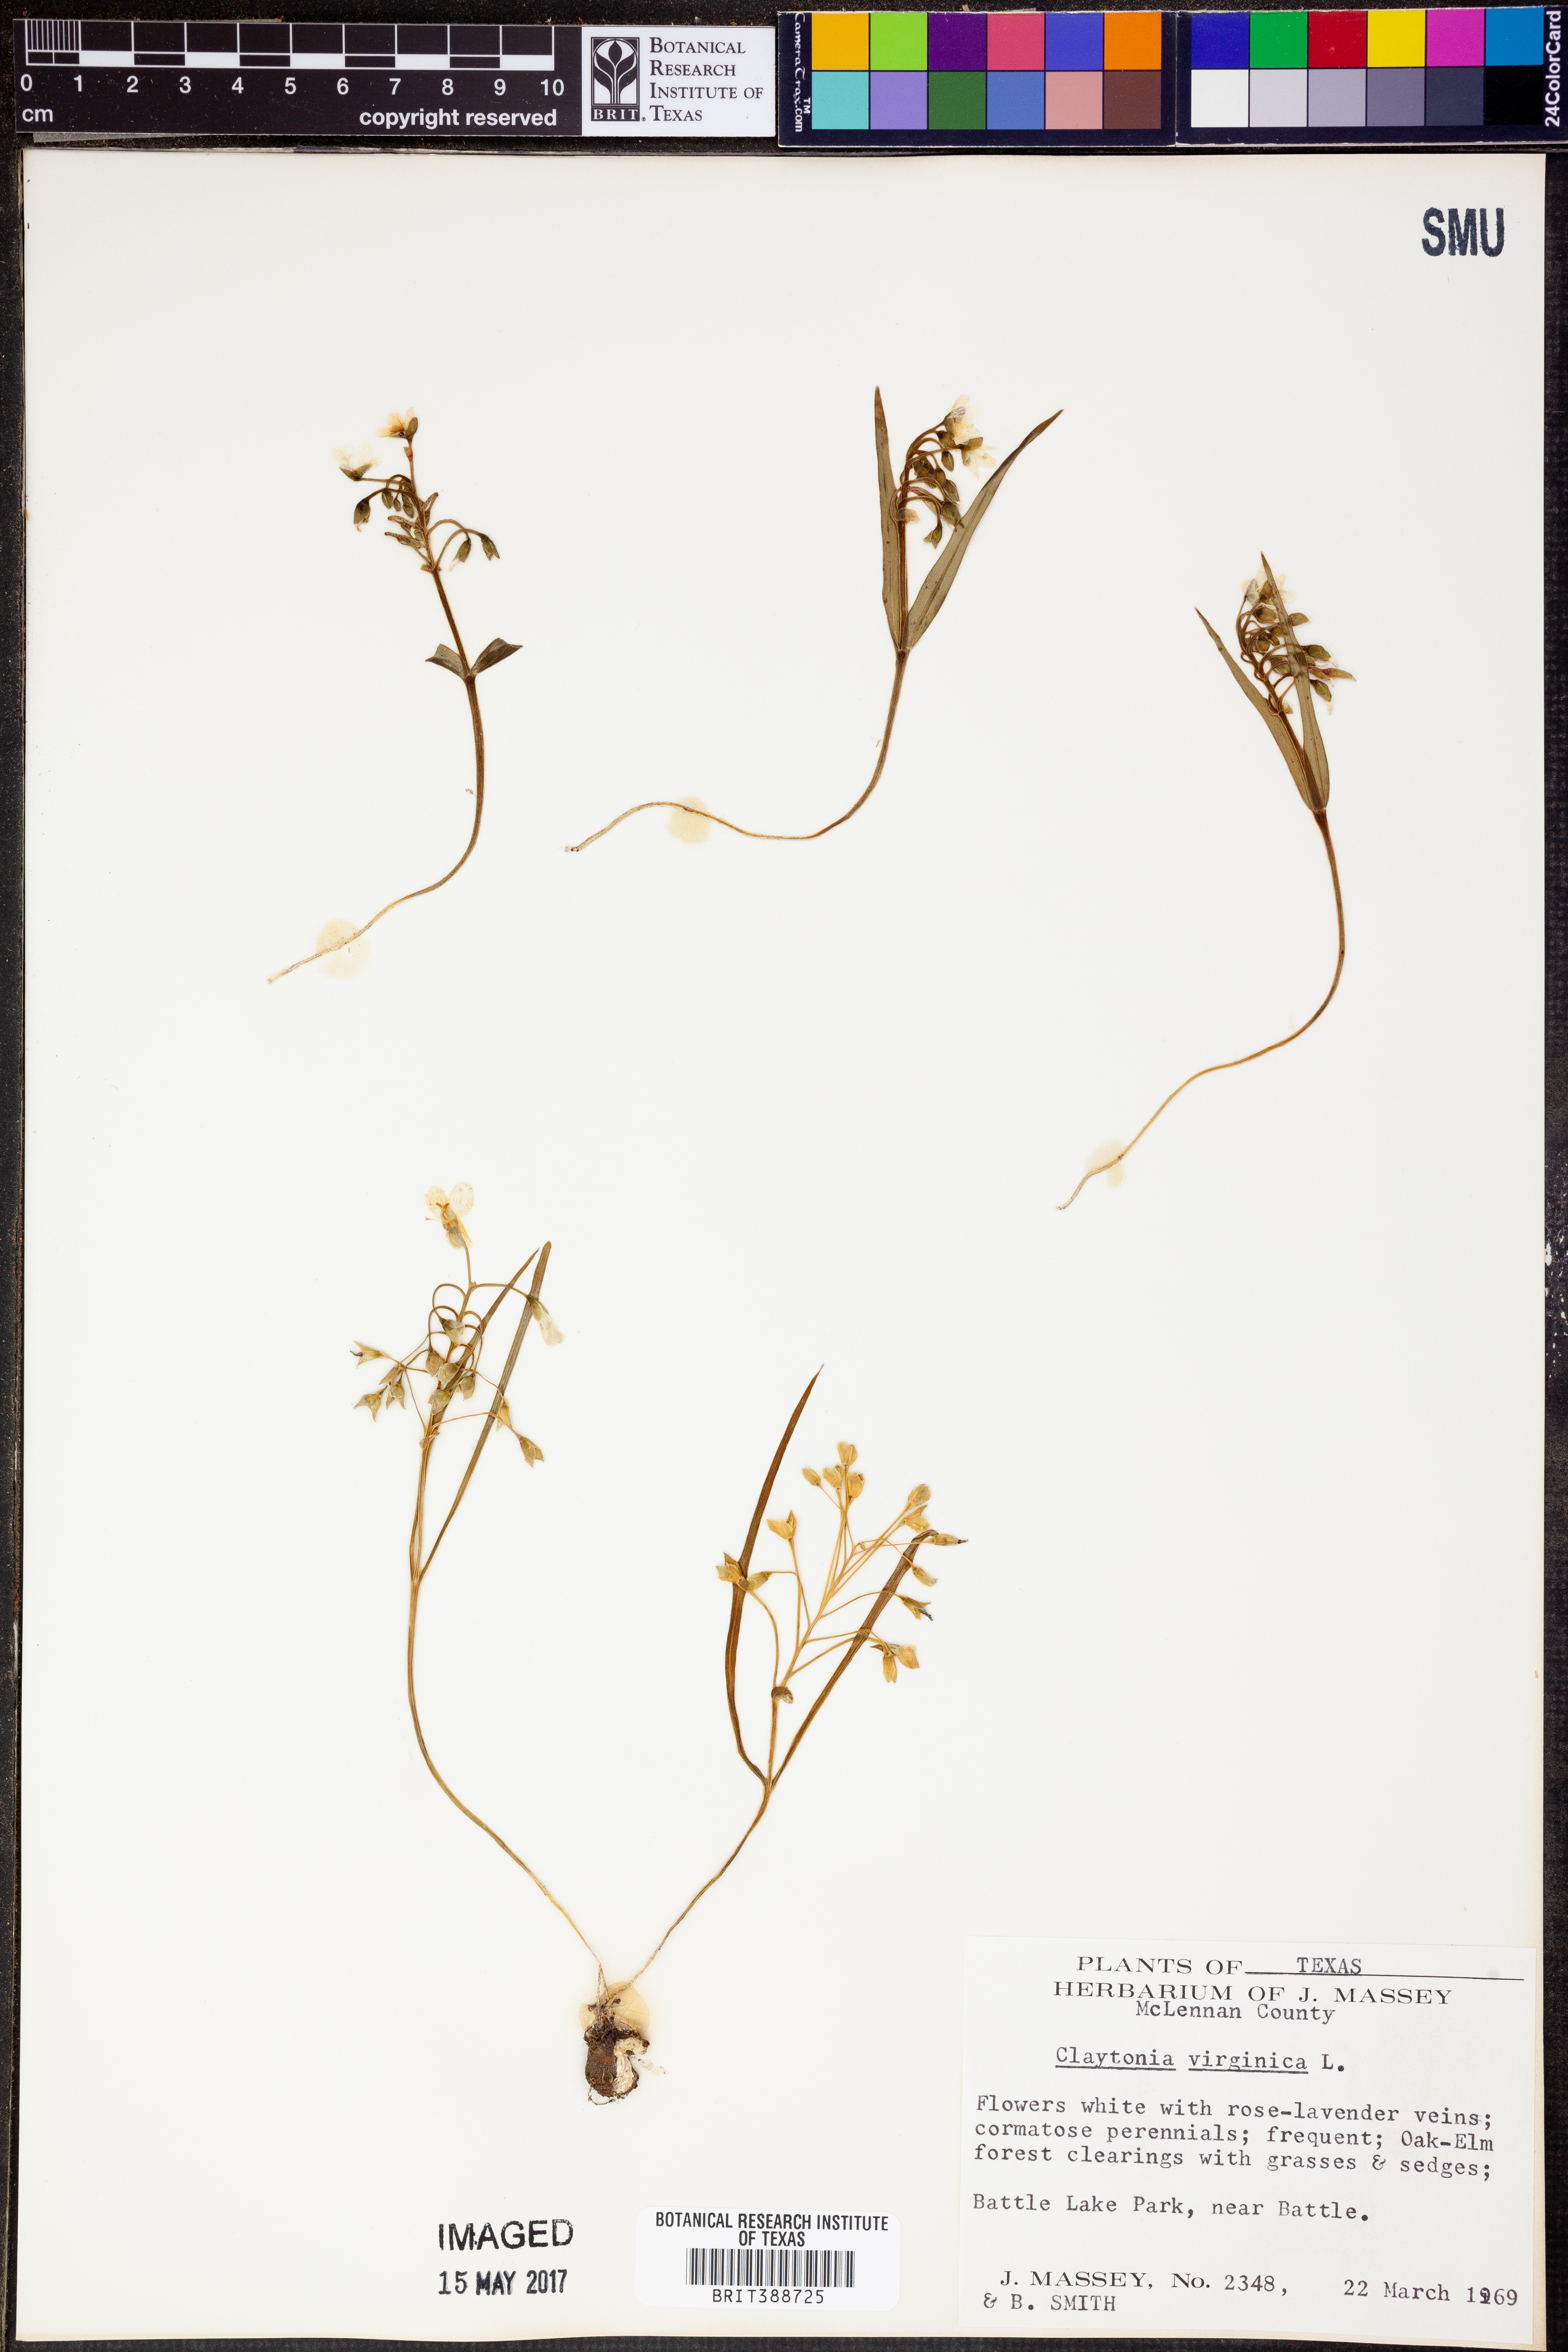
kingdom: Plantae
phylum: Tracheophyta
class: Magnoliopsida
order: Caryophyllales
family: Montiaceae
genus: Claytonia
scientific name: Claytonia virginica
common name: Virginia springbeauty
